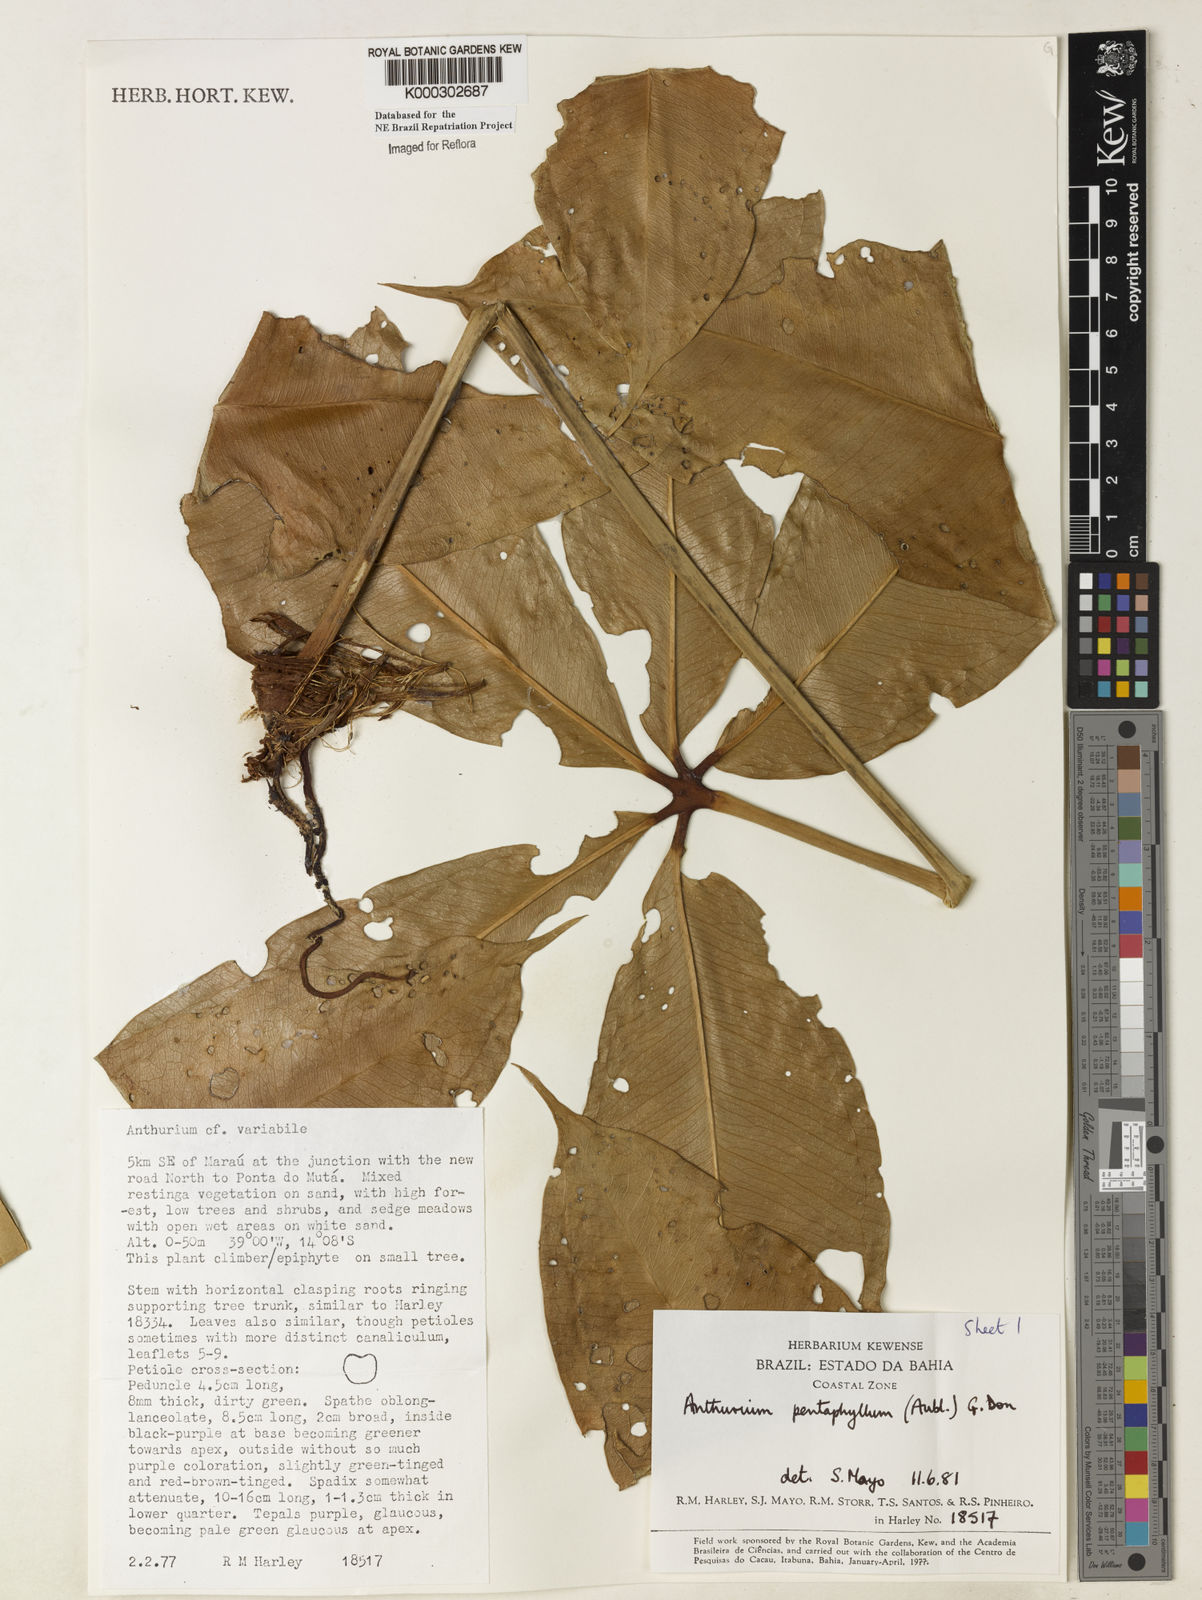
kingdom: Plantae
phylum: Tracheophyta
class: Liliopsida
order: Alismatales
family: Araceae
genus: Anthurium
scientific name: Anthurium pentaphyllum
